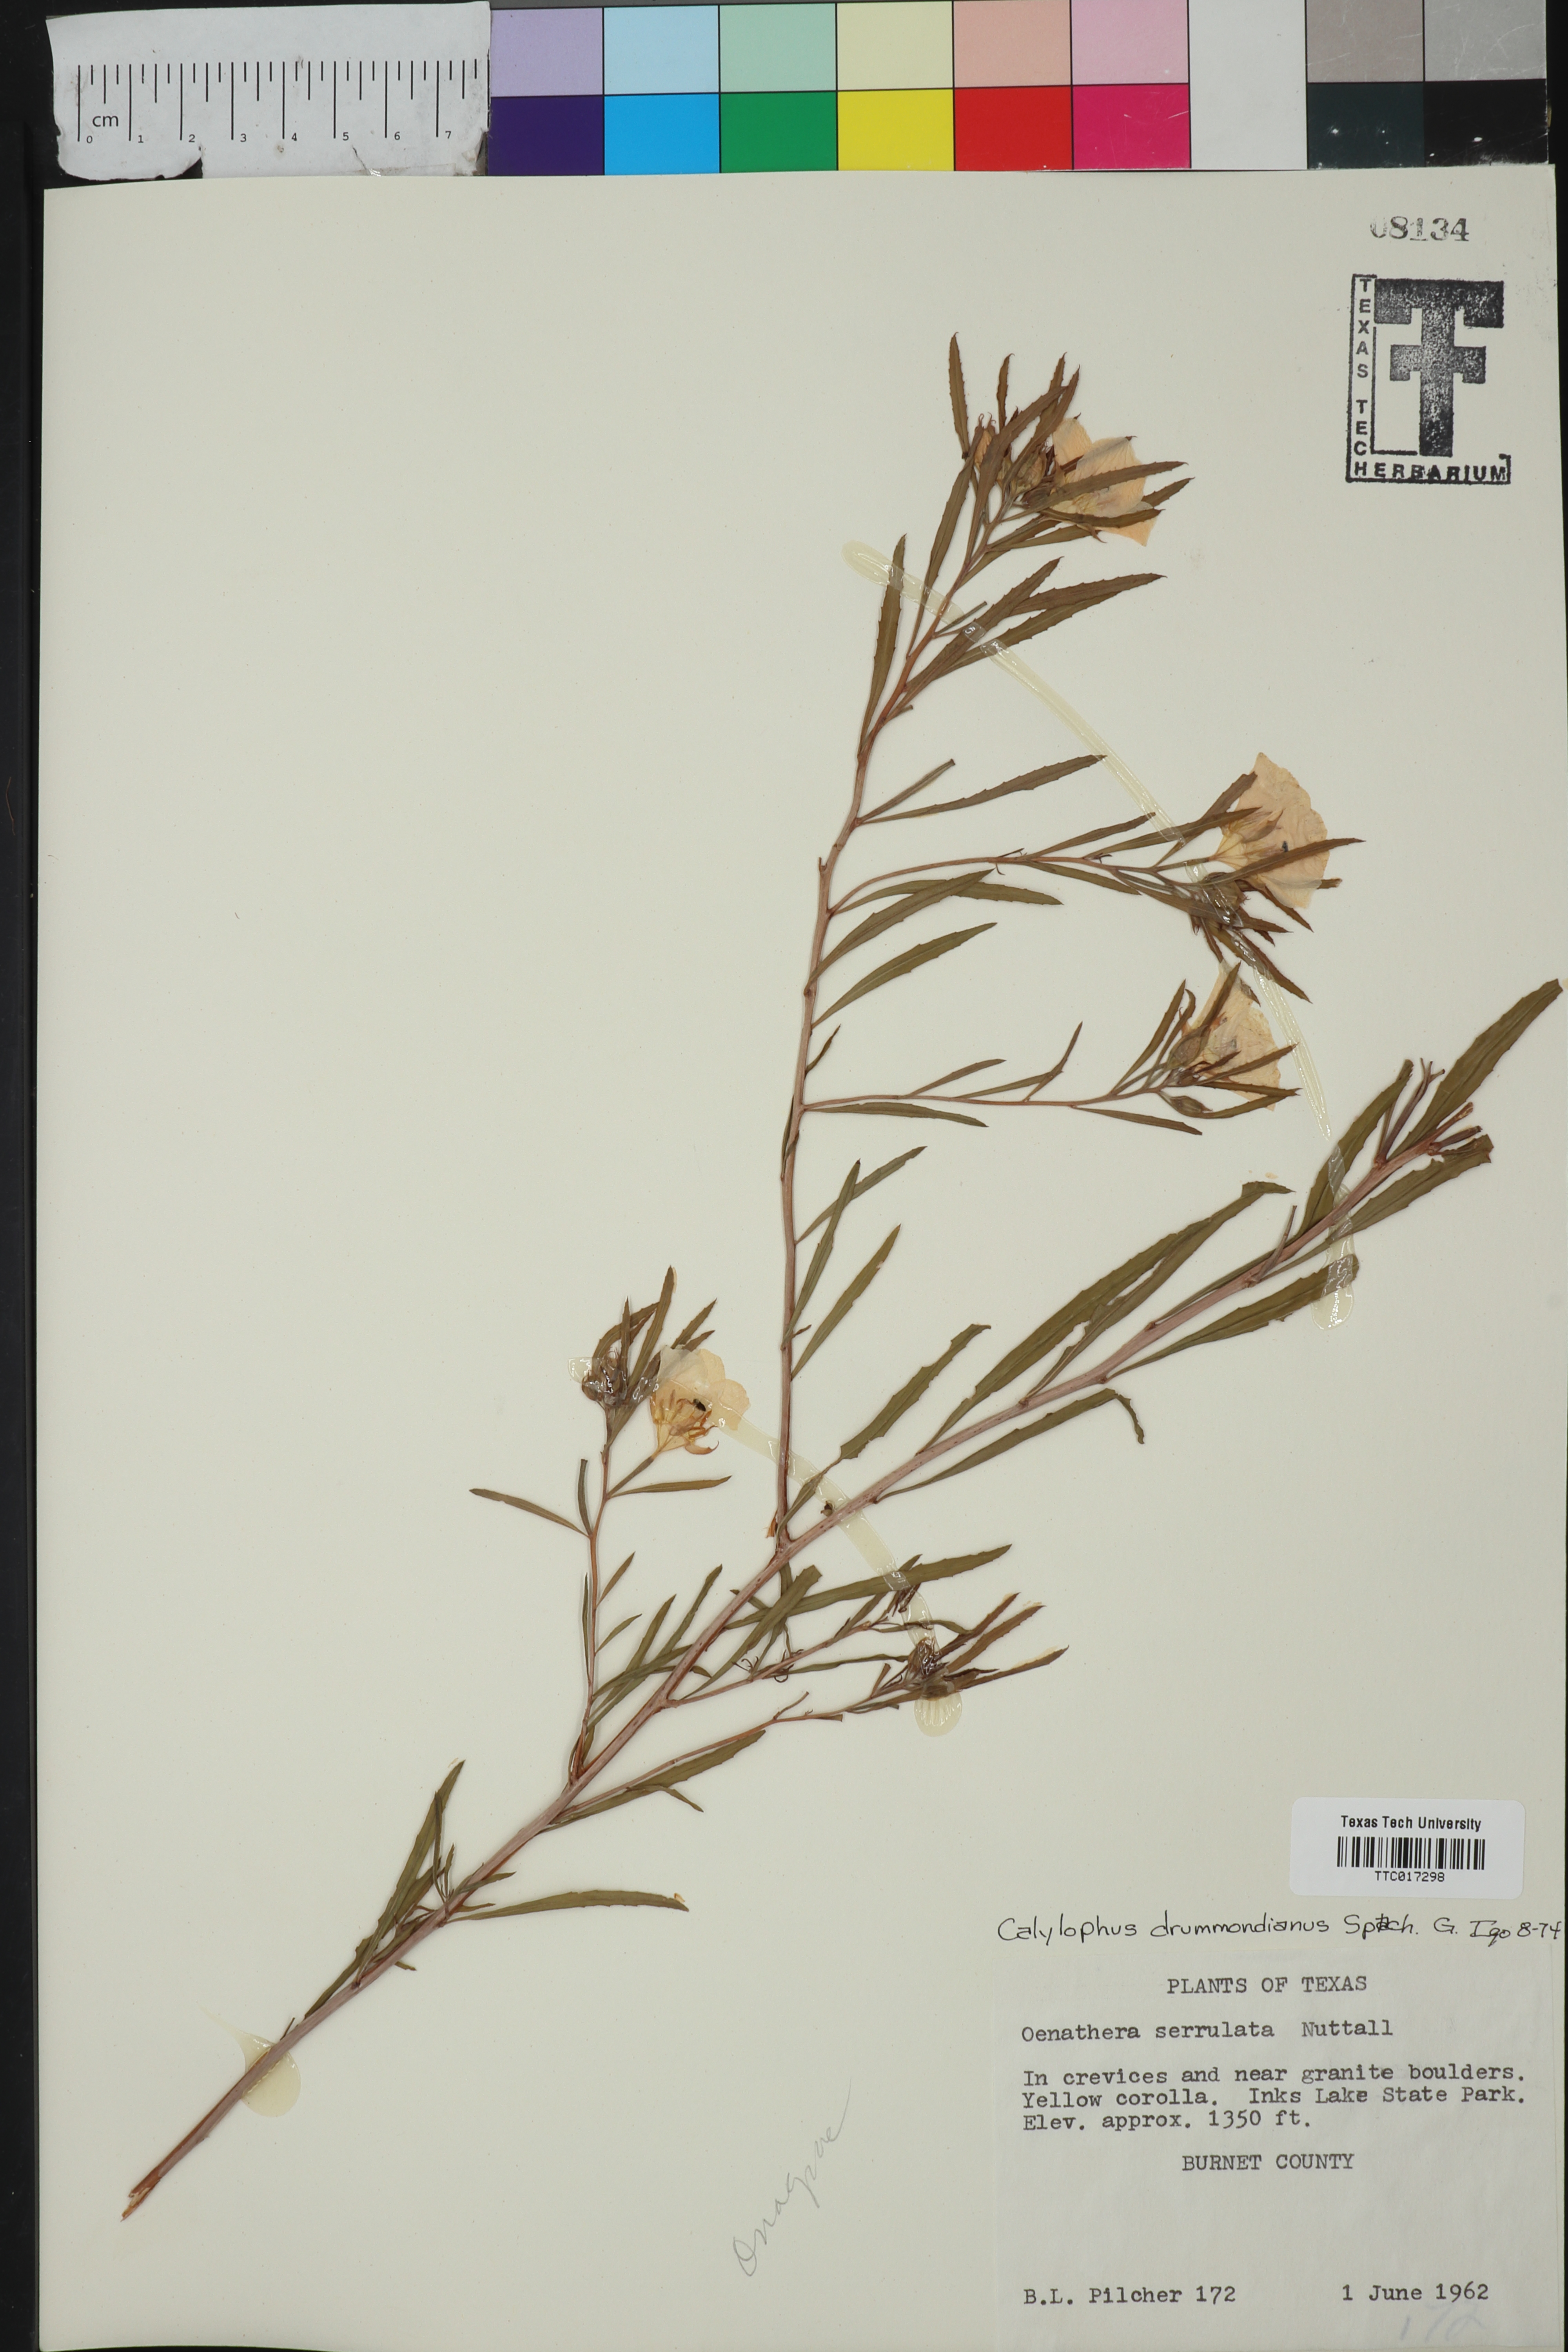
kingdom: Plantae
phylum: Tracheophyta
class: Magnoliopsida
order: Myrtales
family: Onagraceae
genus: Oenothera
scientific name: Oenothera serrulata
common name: Half-shrub calylophus
